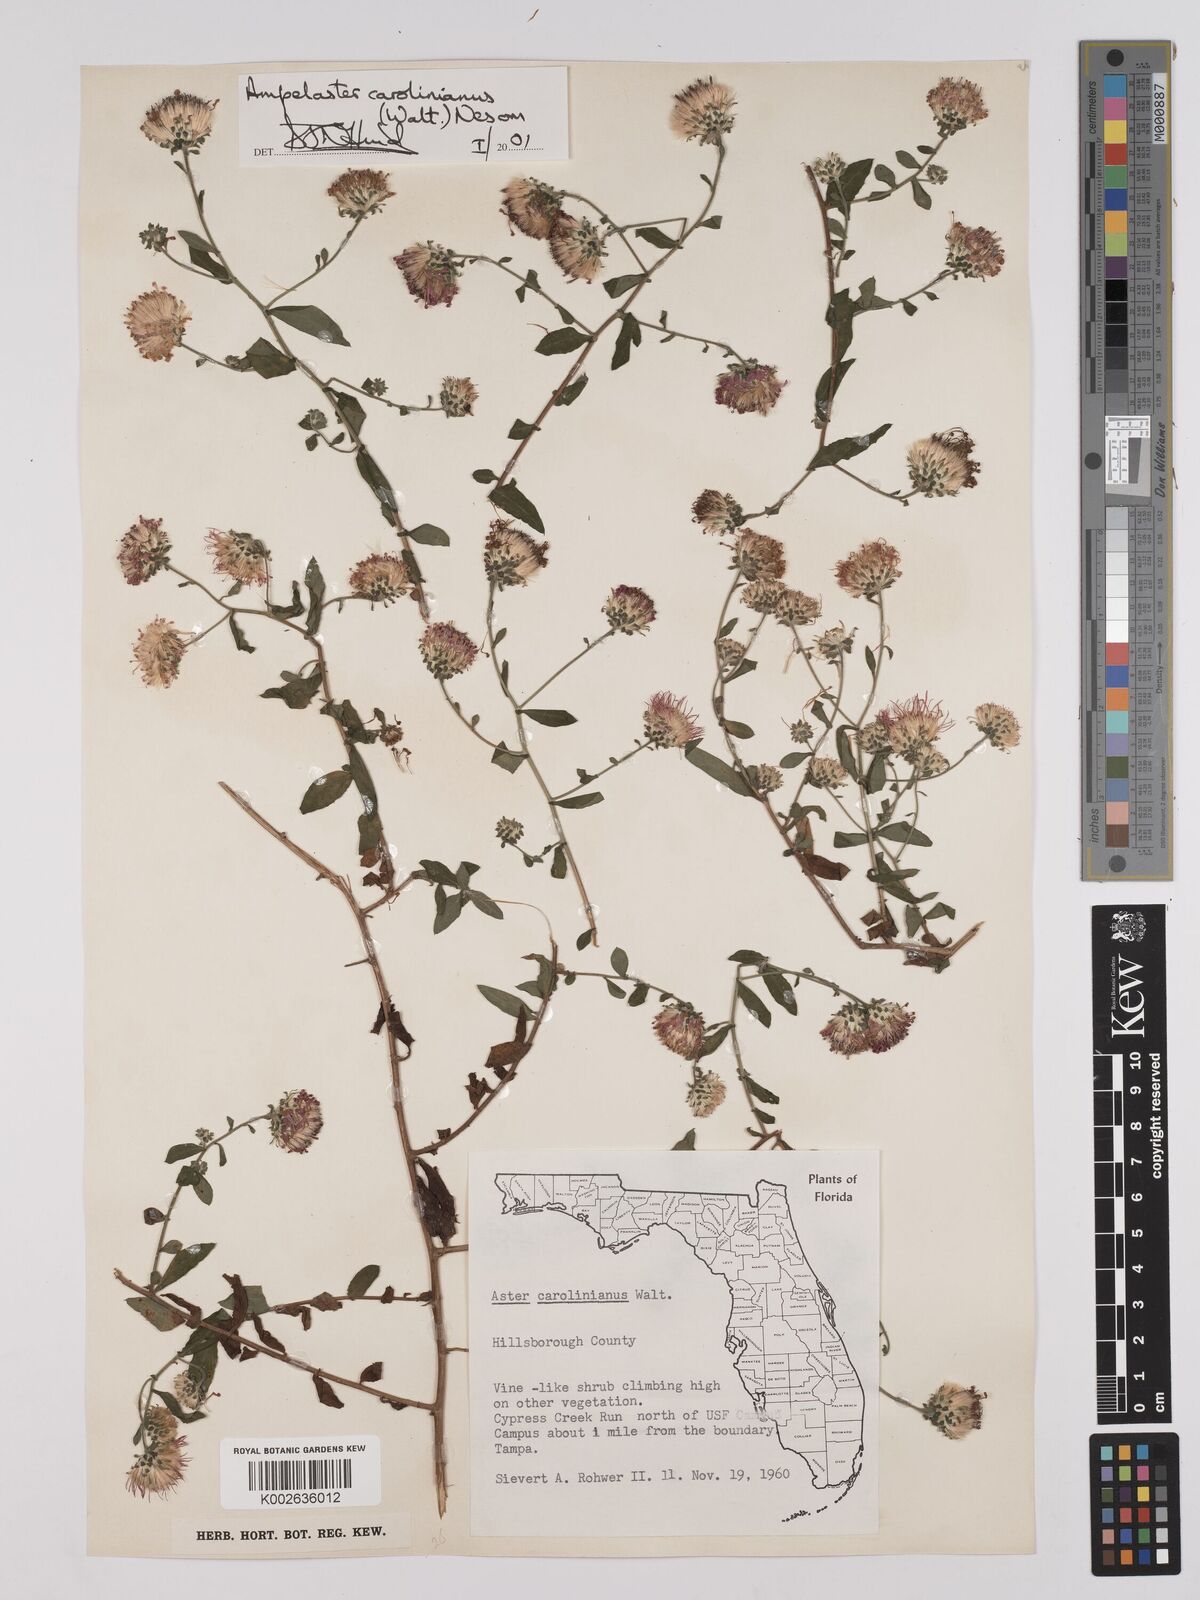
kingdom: Plantae
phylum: Tracheophyta
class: Magnoliopsida
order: Asterales
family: Asteraceae
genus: Ampelaster
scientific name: Ampelaster carolinianus
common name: Climbing aster
